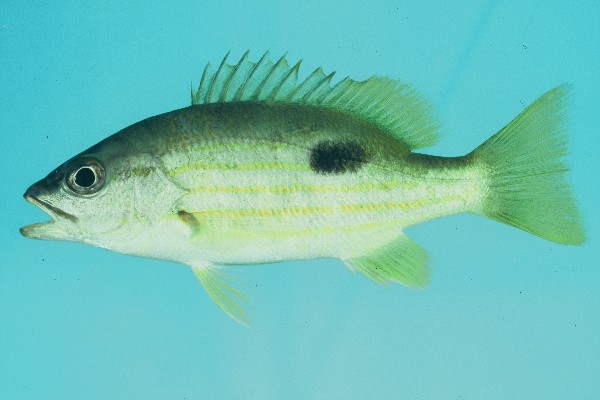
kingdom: Animalia
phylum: Chordata
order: Perciformes
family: Lutjanidae
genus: Lutjanus
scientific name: Lutjanus fulviflamma
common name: Blackspot snapper
